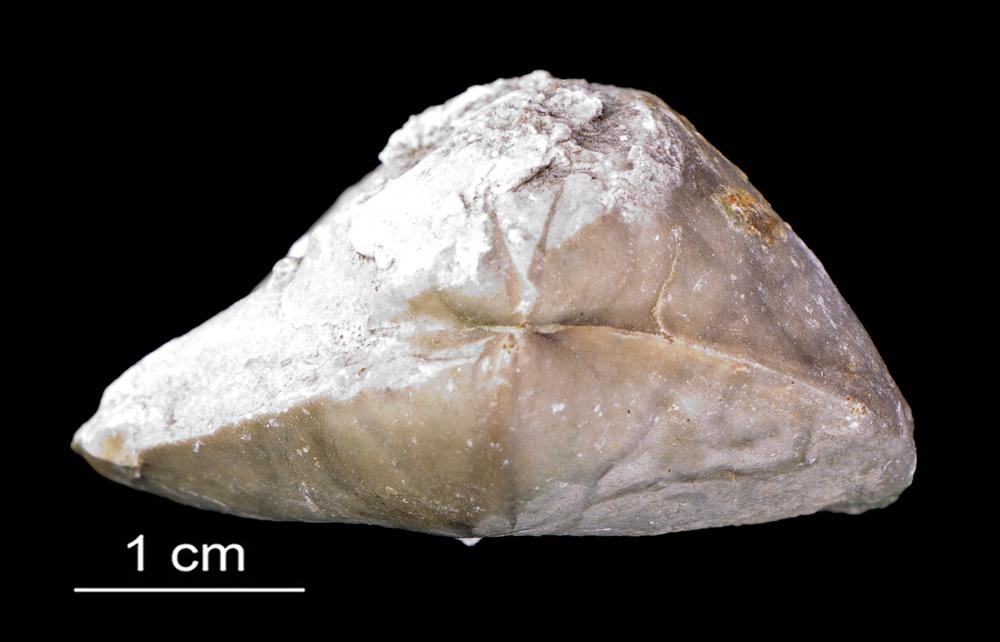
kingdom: Animalia
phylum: Brachiopoda
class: Rhynchonellata
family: Porambonitidae
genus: Porambonites
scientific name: Porambonites
